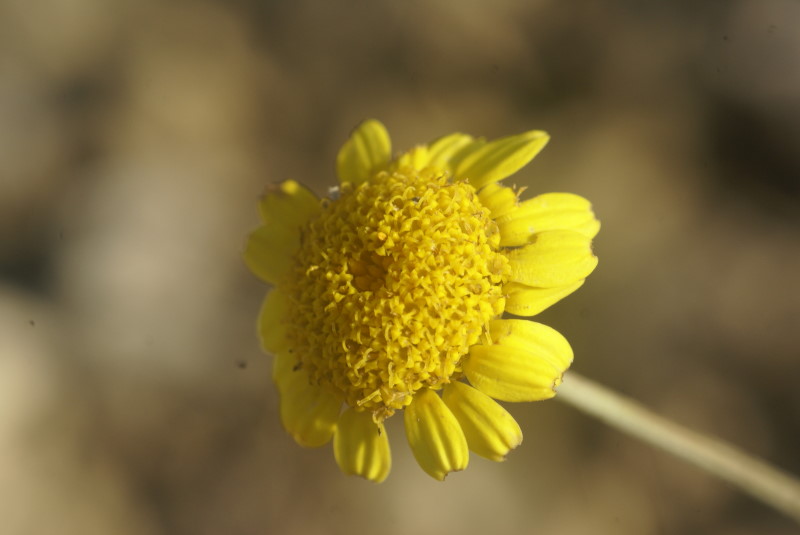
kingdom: Plantae
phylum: Tracheophyta
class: Magnoliopsida
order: Asterales
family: Asteraceae
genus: Cota
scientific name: Cota tinctoria
